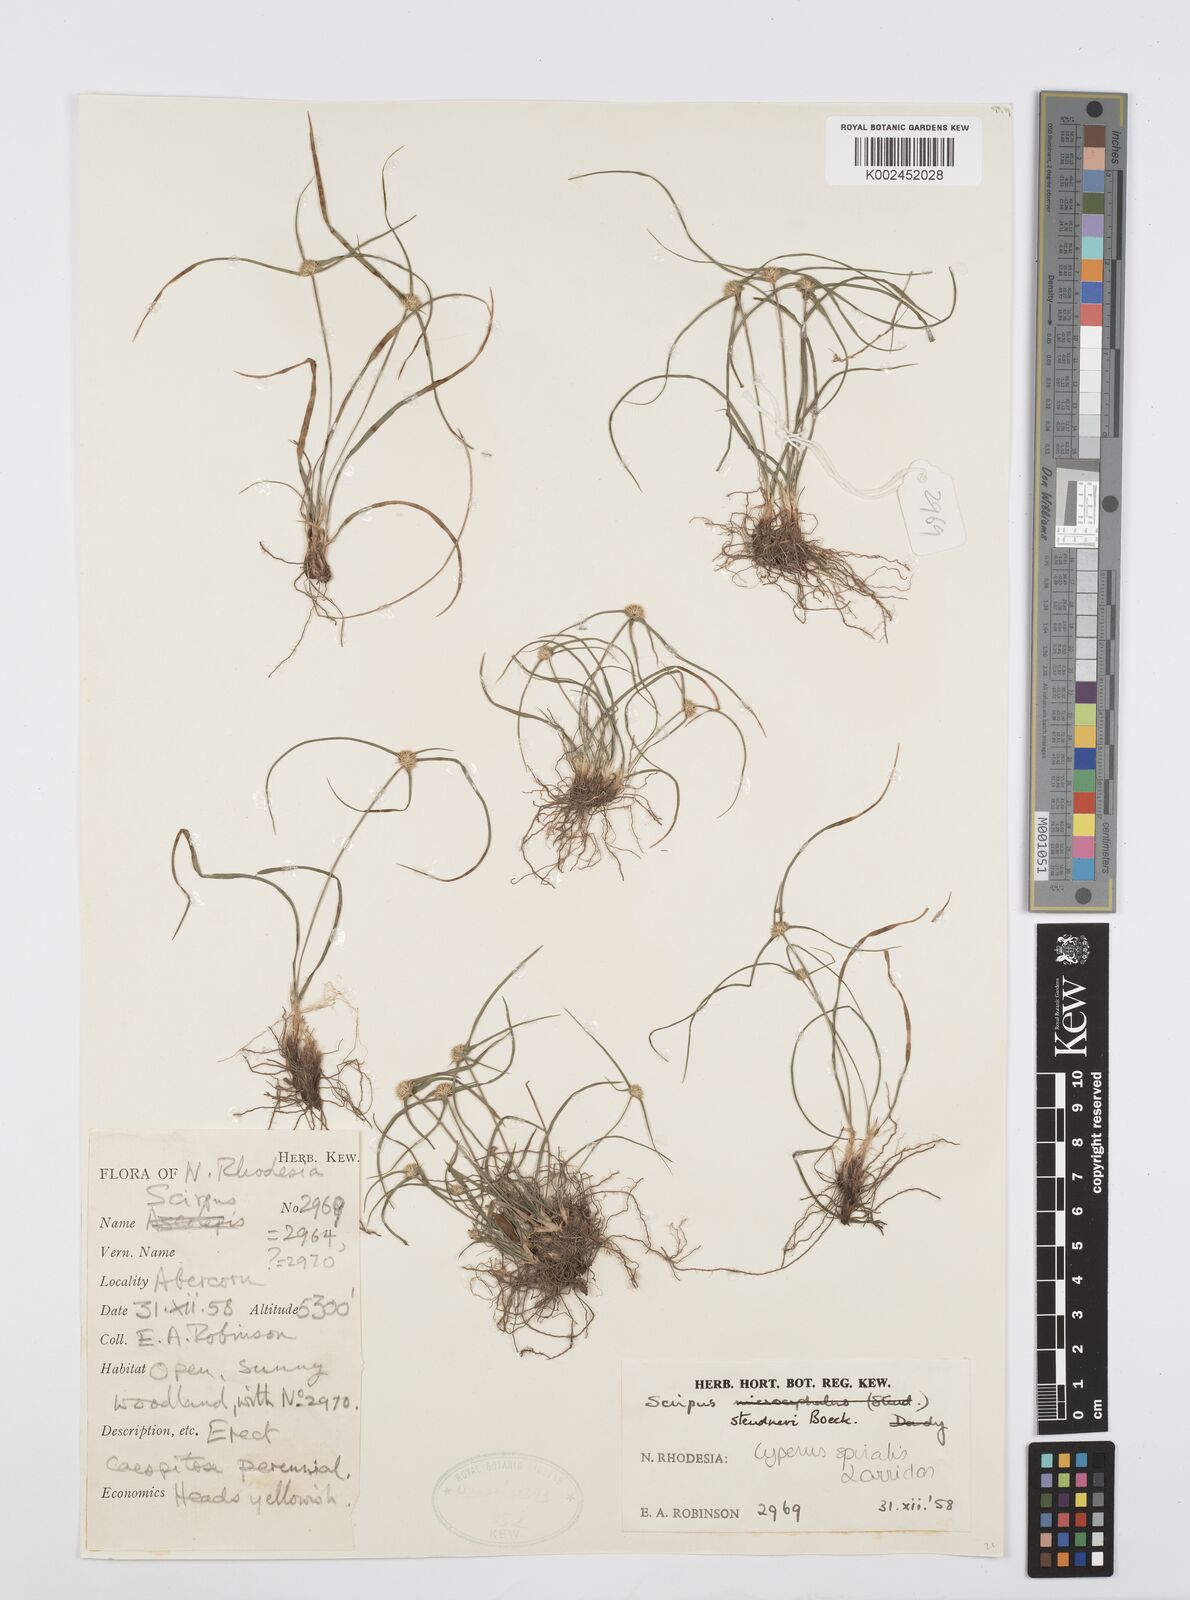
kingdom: Plantae
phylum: Tracheophyta
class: Liliopsida
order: Poales
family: Cyperaceae
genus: Cyperus
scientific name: Cyperus bulbosus
